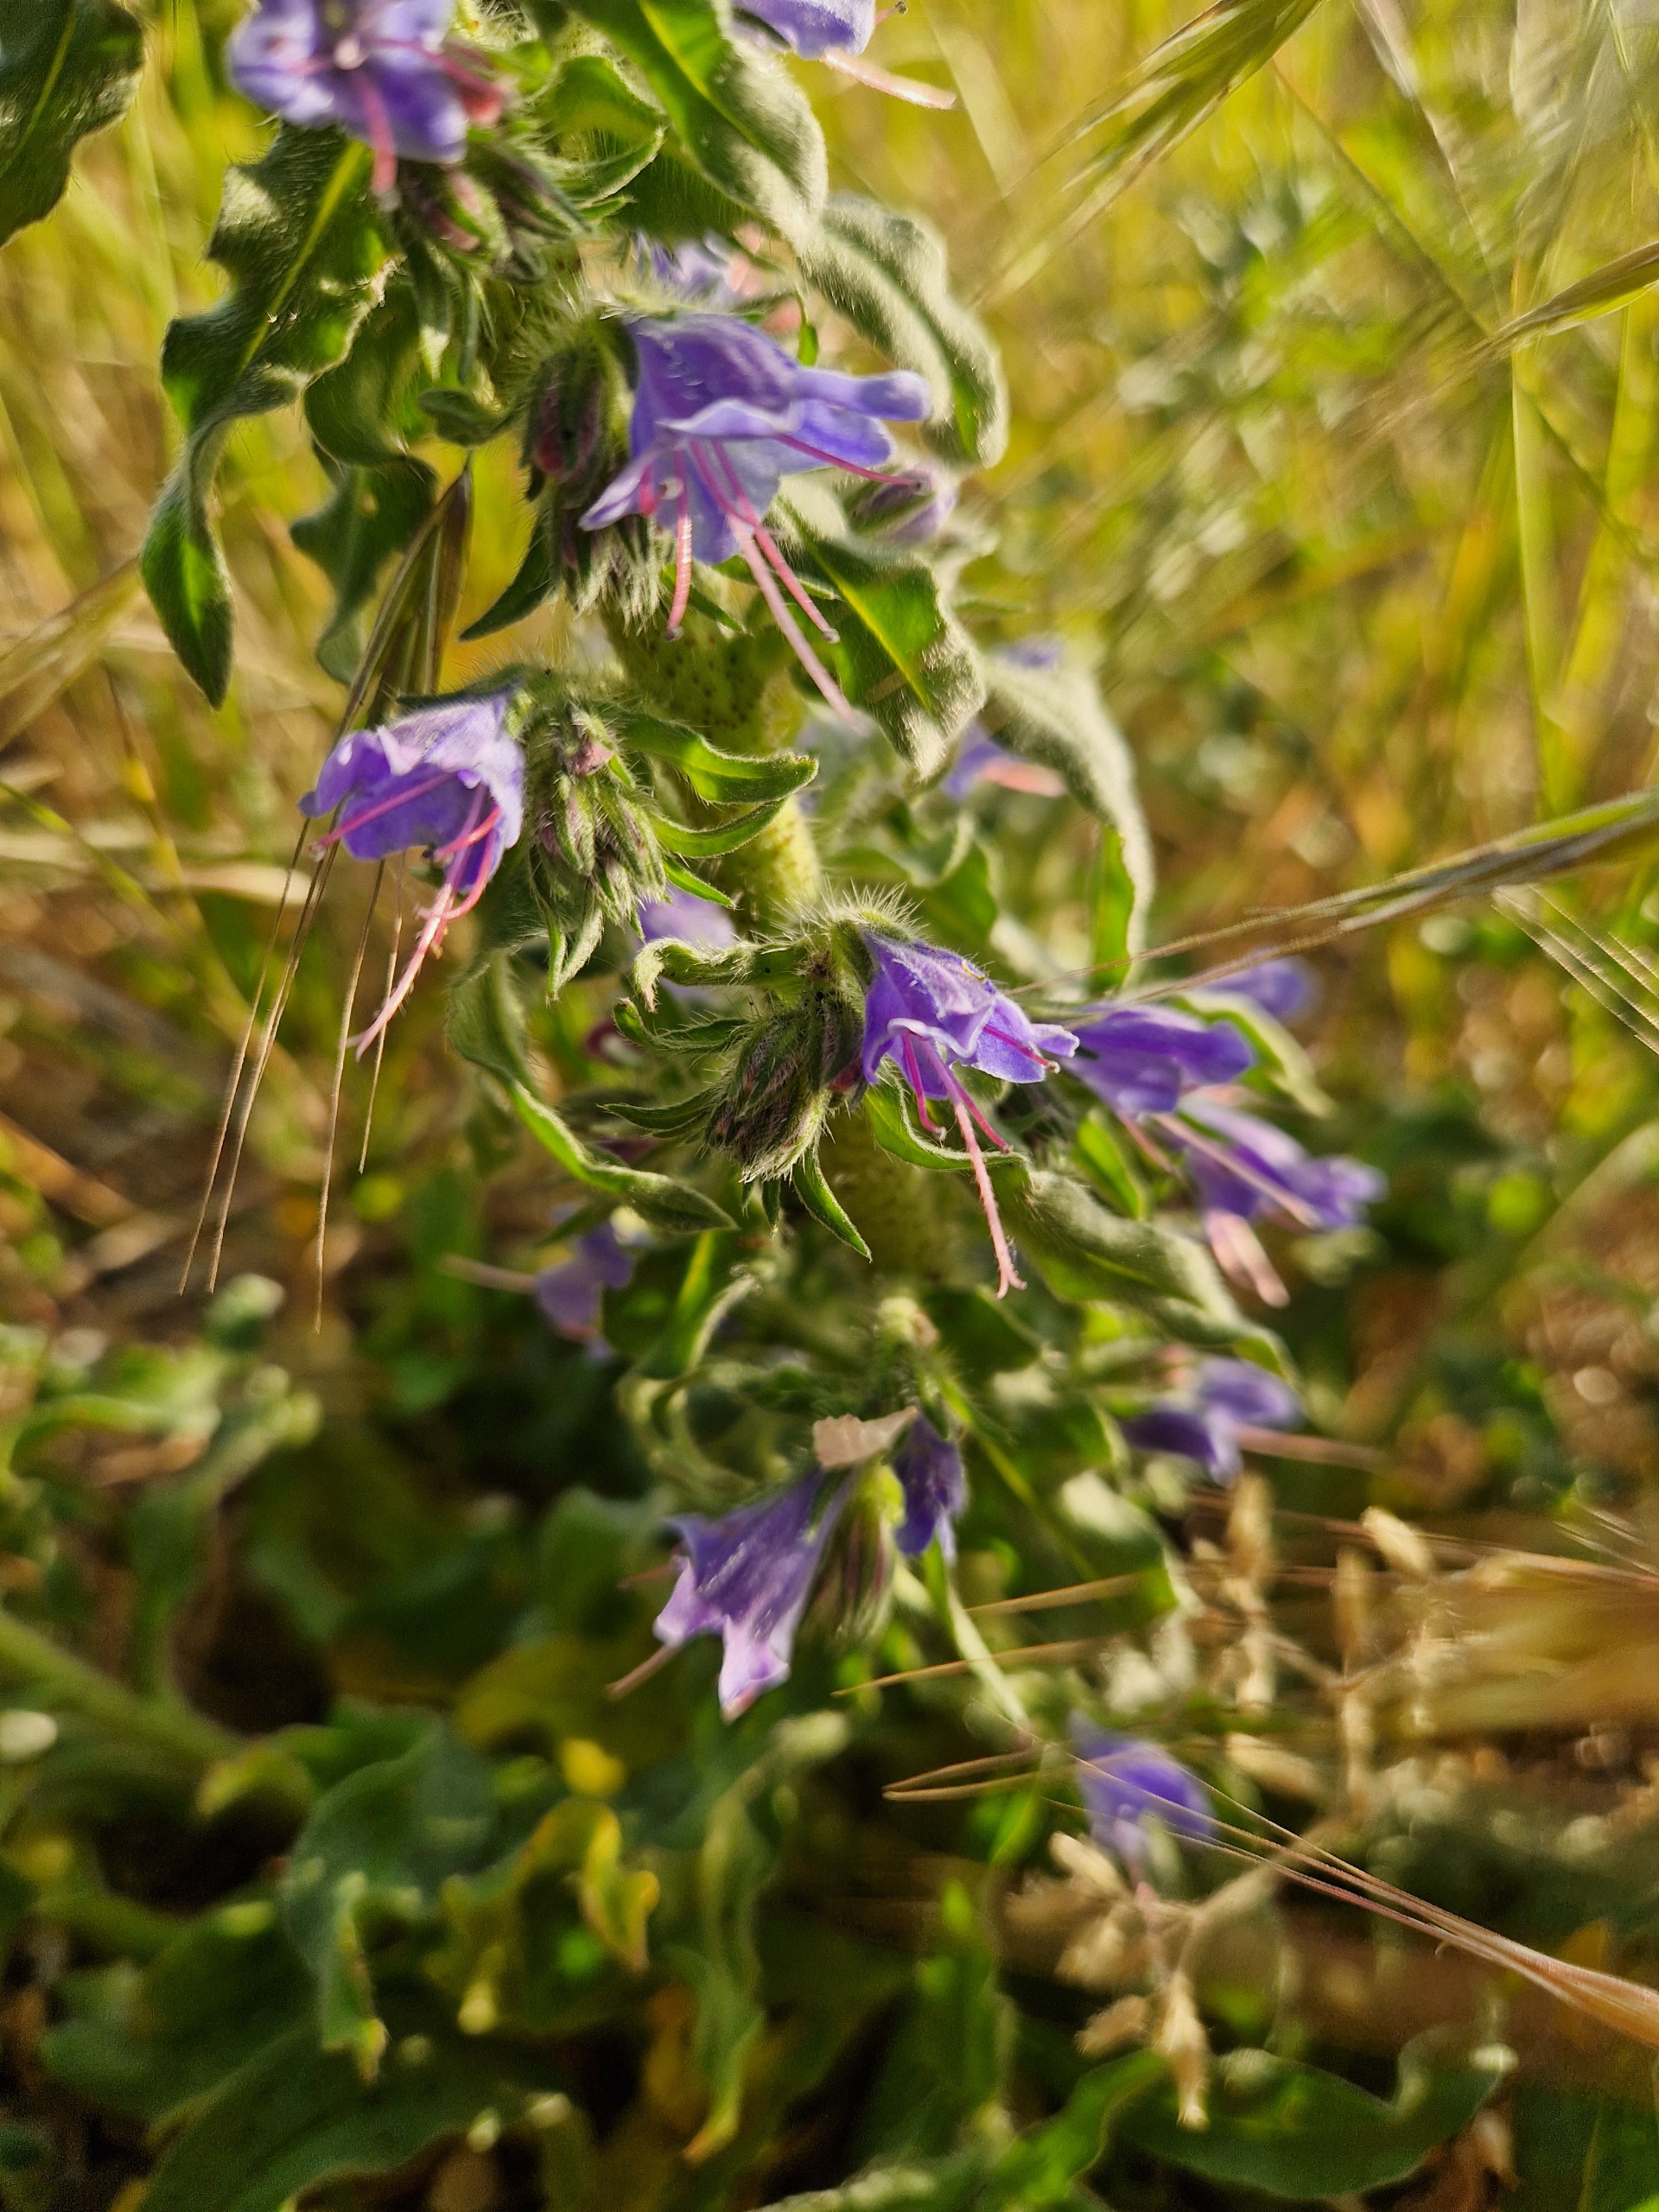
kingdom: Plantae
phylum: Tracheophyta
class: Magnoliopsida
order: Boraginales
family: Boraginaceae
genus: Echium
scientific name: Echium vulgare
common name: Slangehoved
